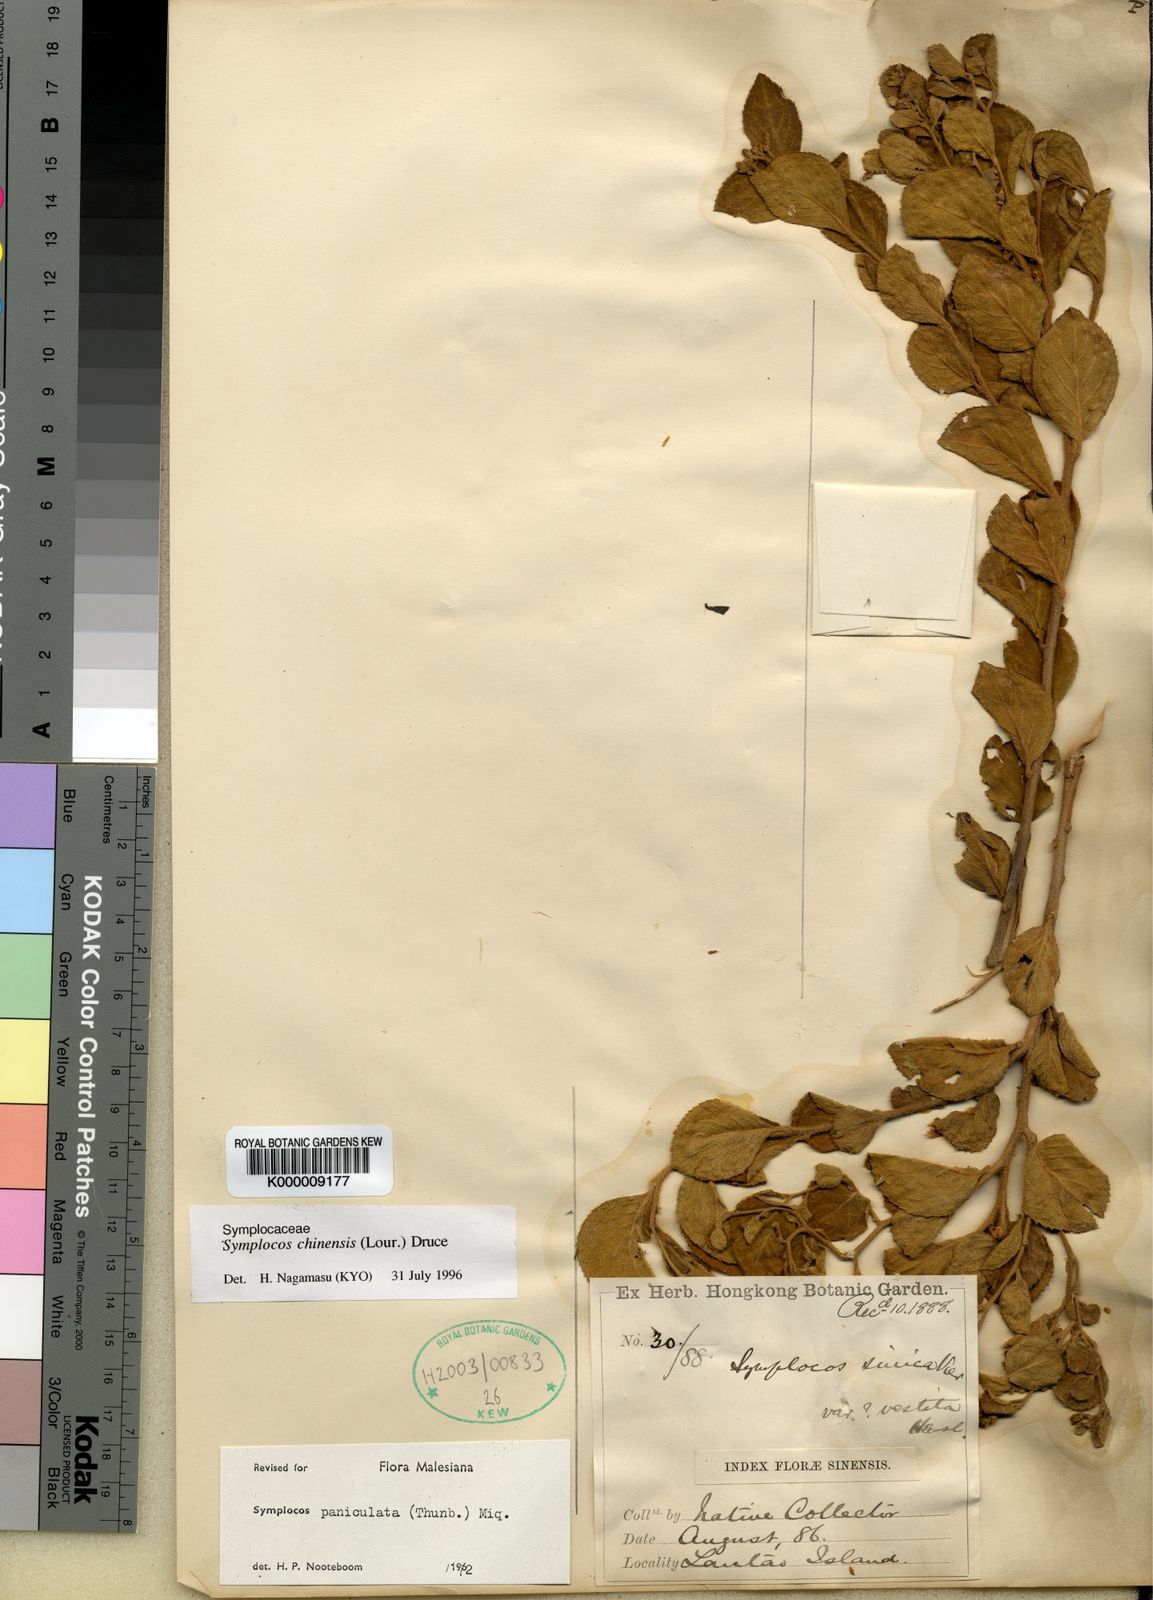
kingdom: Plantae
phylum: Tracheophyta
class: Magnoliopsida
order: Ericales
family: Symplocaceae
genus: Symplocos
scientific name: Symplocos paniculata
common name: Sapphire-berry
